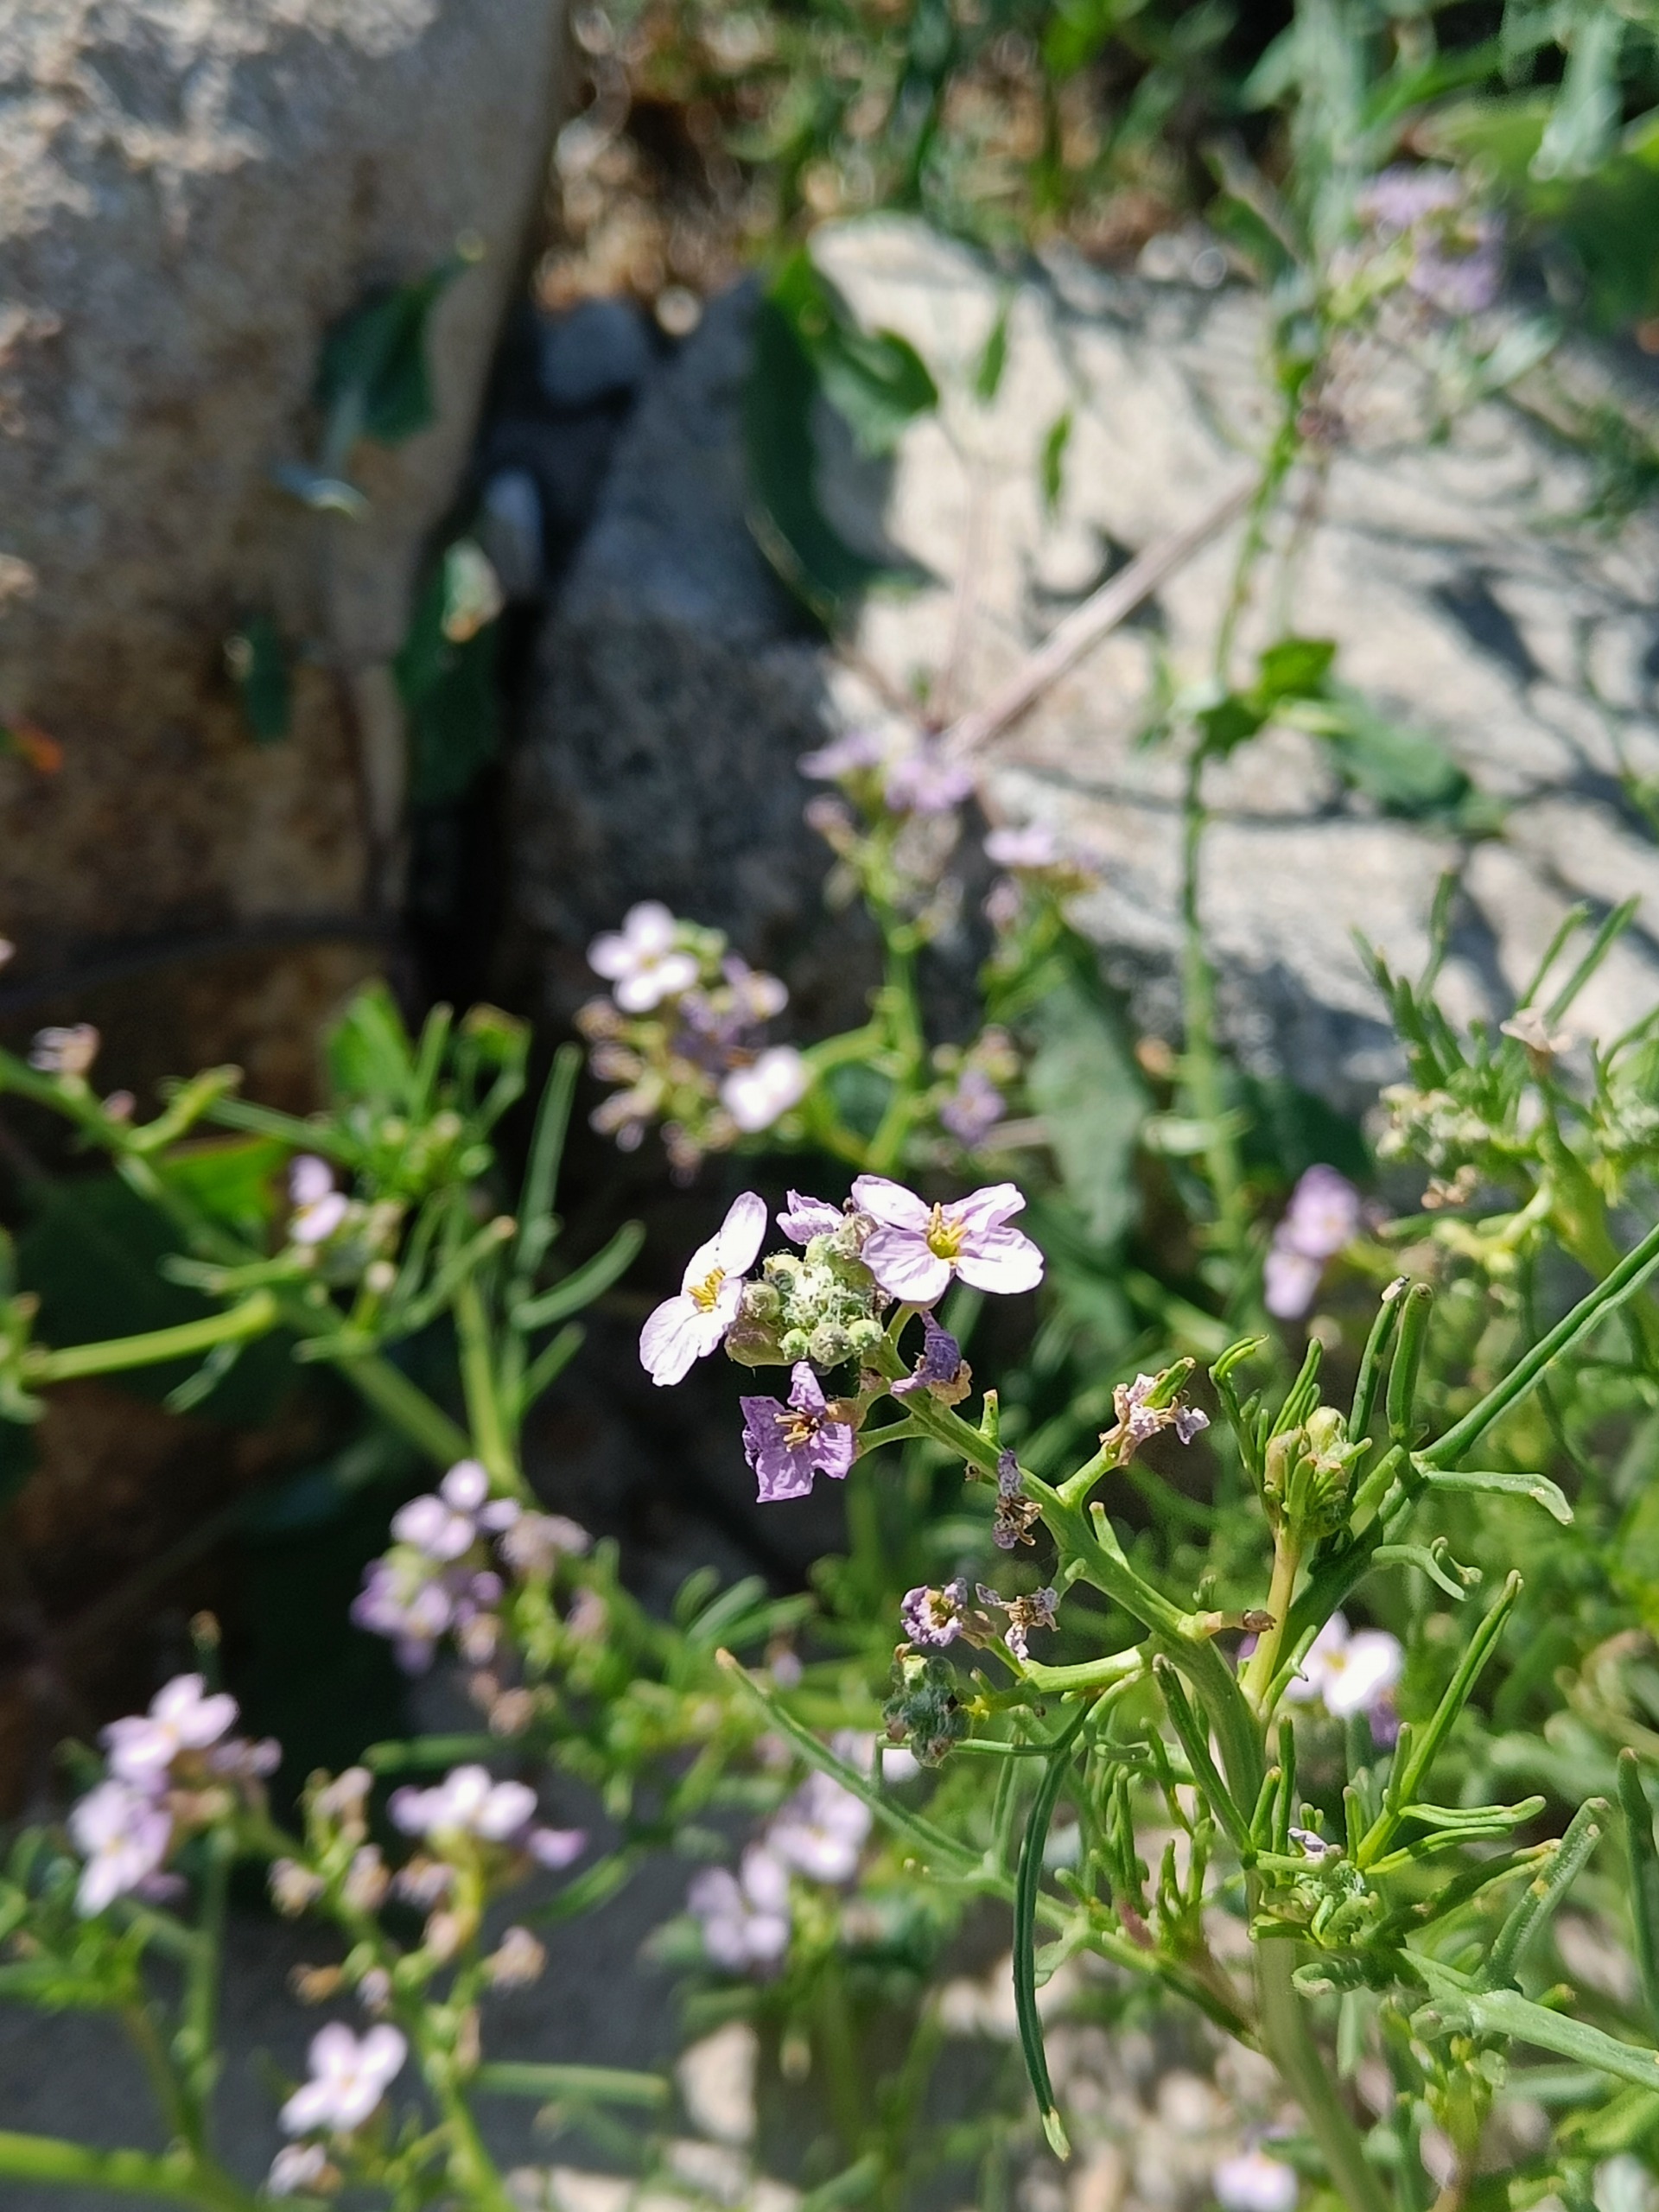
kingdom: Plantae
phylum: Tracheophyta
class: Magnoliopsida
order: Brassicales
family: Brassicaceae
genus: Cakile
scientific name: Cakile maritima
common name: Strandsennep
